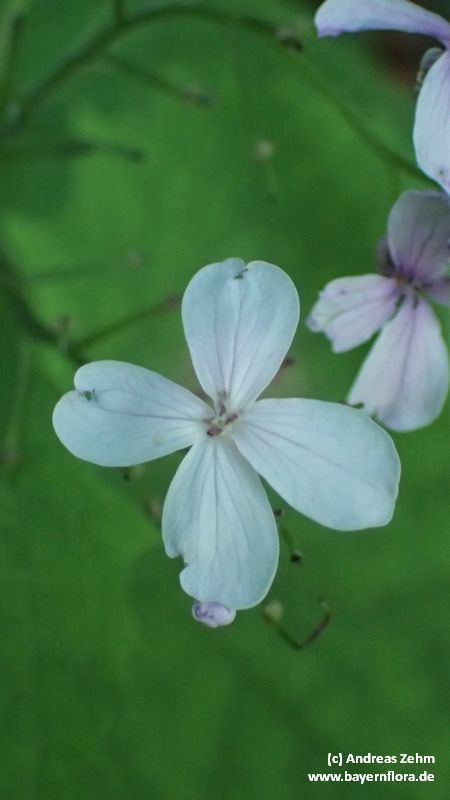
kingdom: Plantae
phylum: Tracheophyta
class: Magnoliopsida
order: Brassicales
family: Brassicaceae
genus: Lunaria
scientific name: Lunaria rediviva
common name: Perennial honesty
